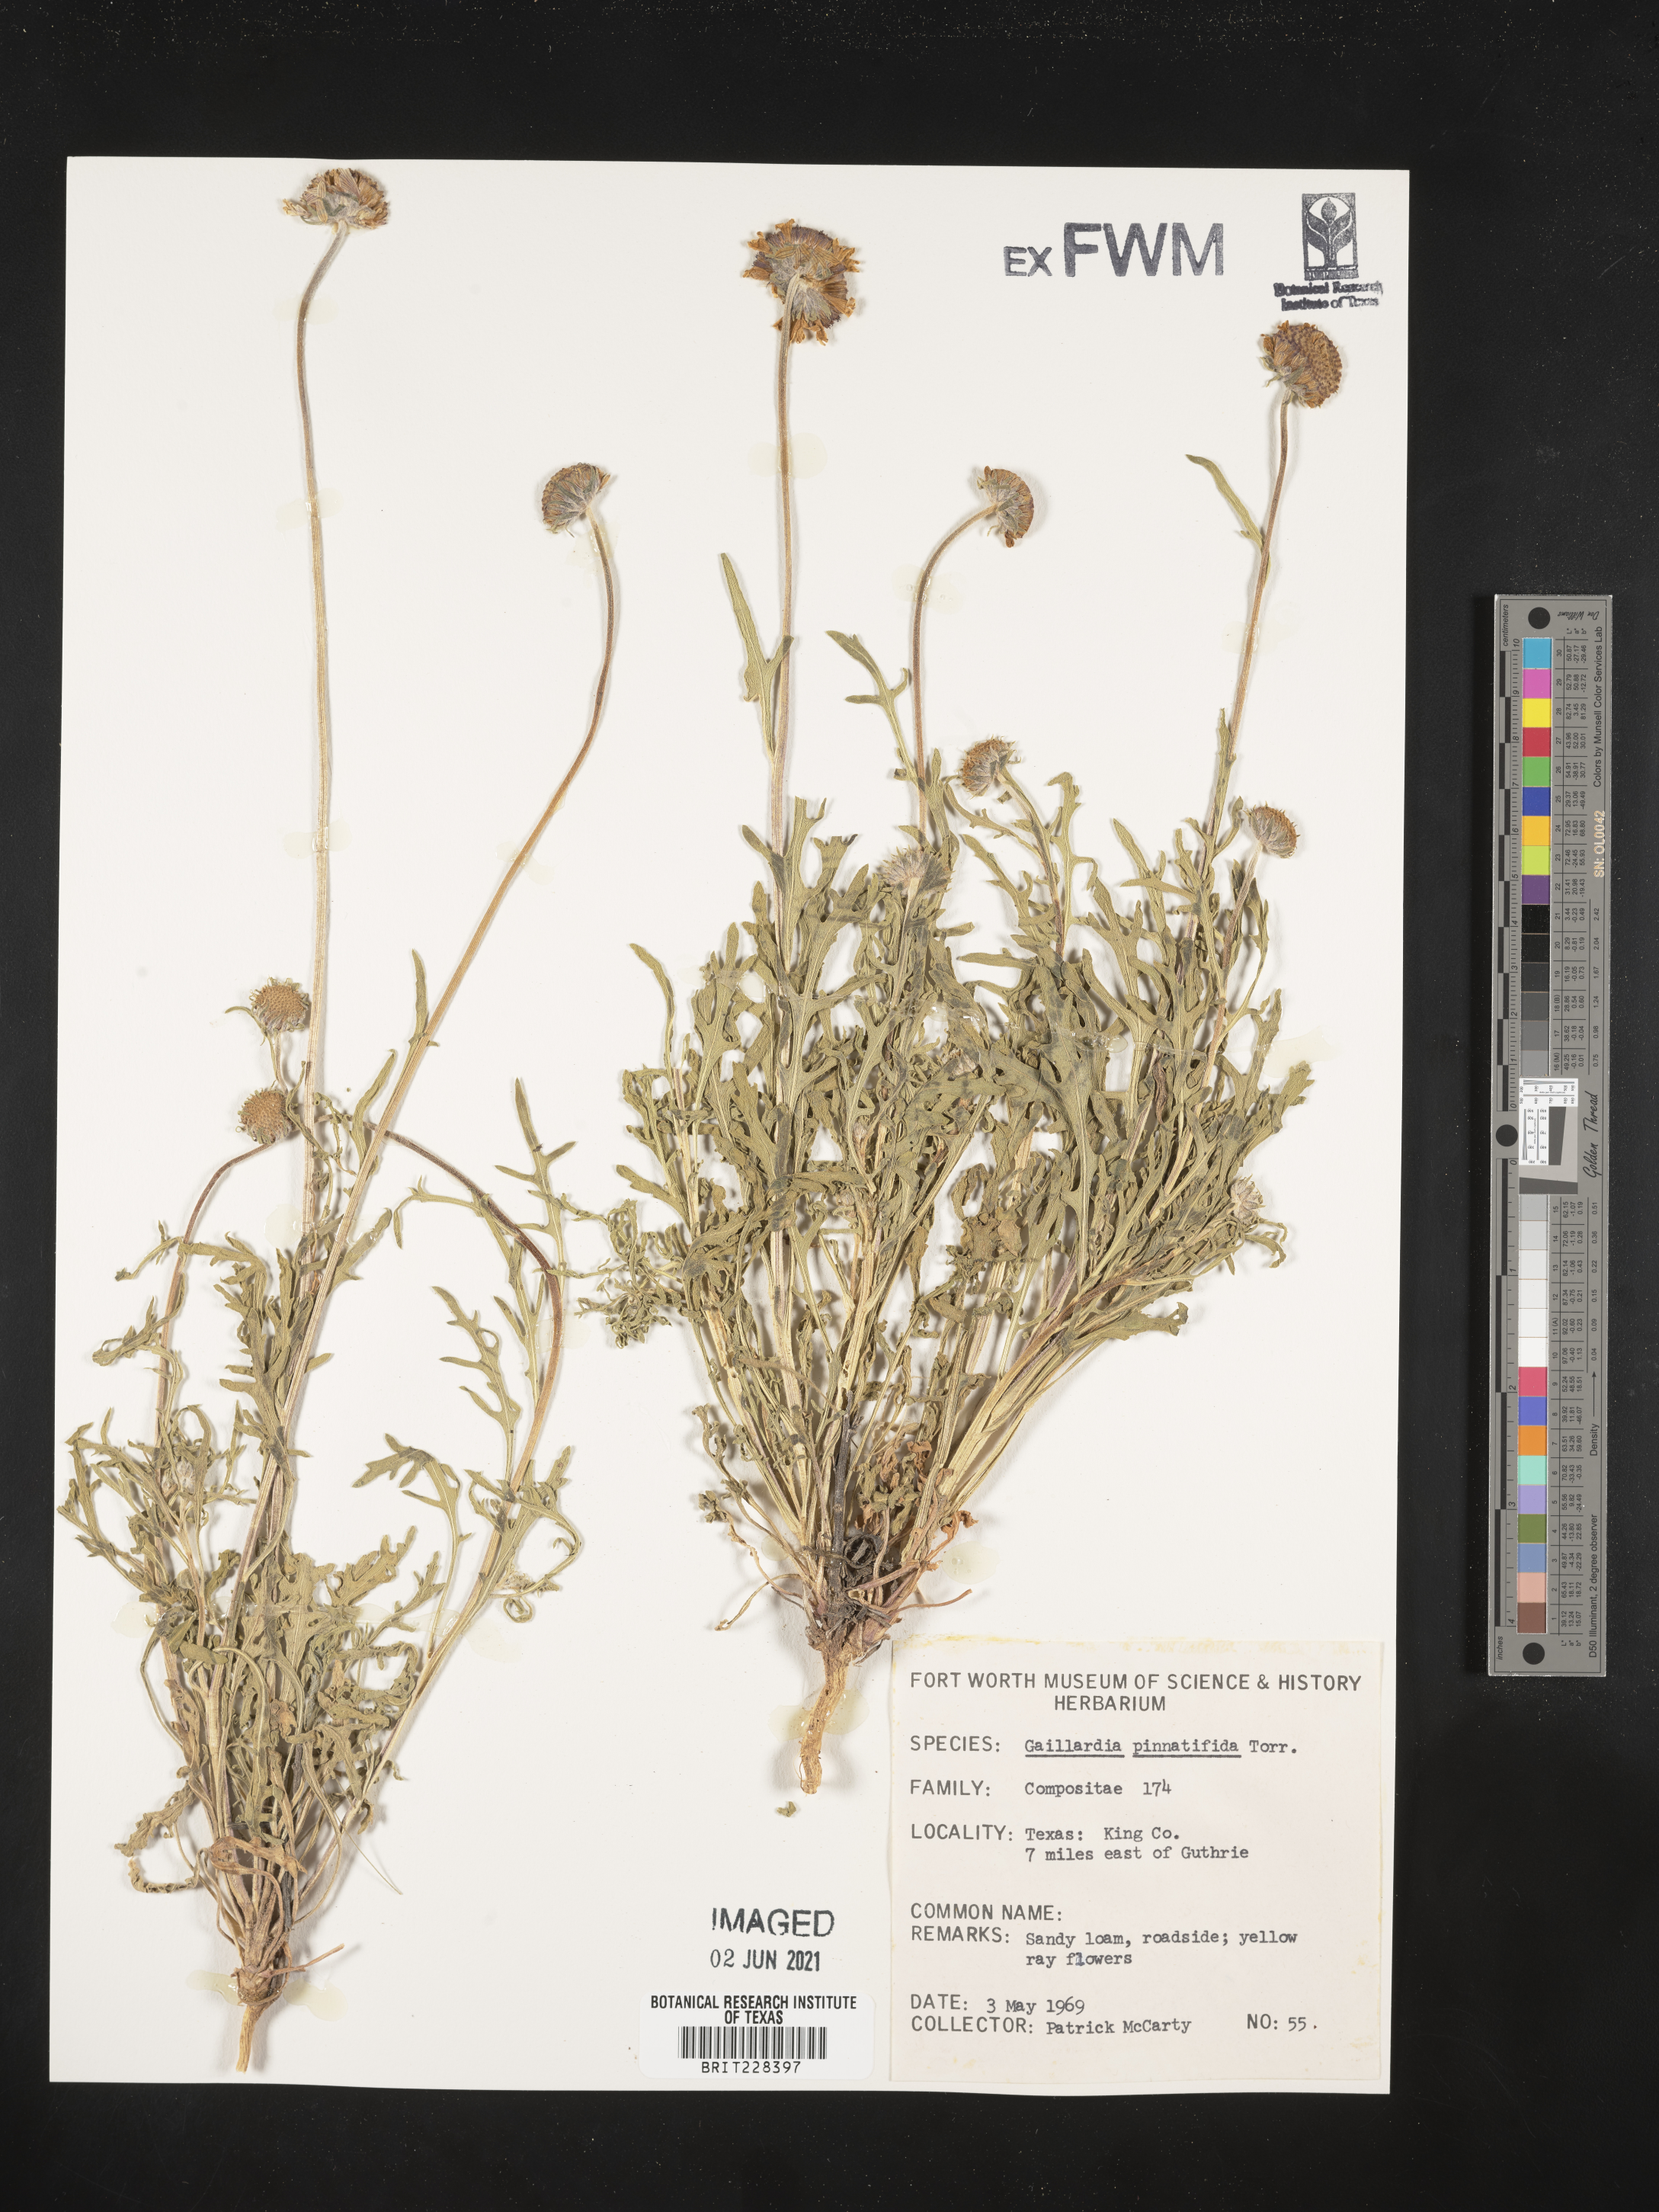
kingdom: Plantae
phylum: Tracheophyta
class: Magnoliopsida
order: Asterales
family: Asteraceae
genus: Gaillardia
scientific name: Gaillardia pinnatifida
